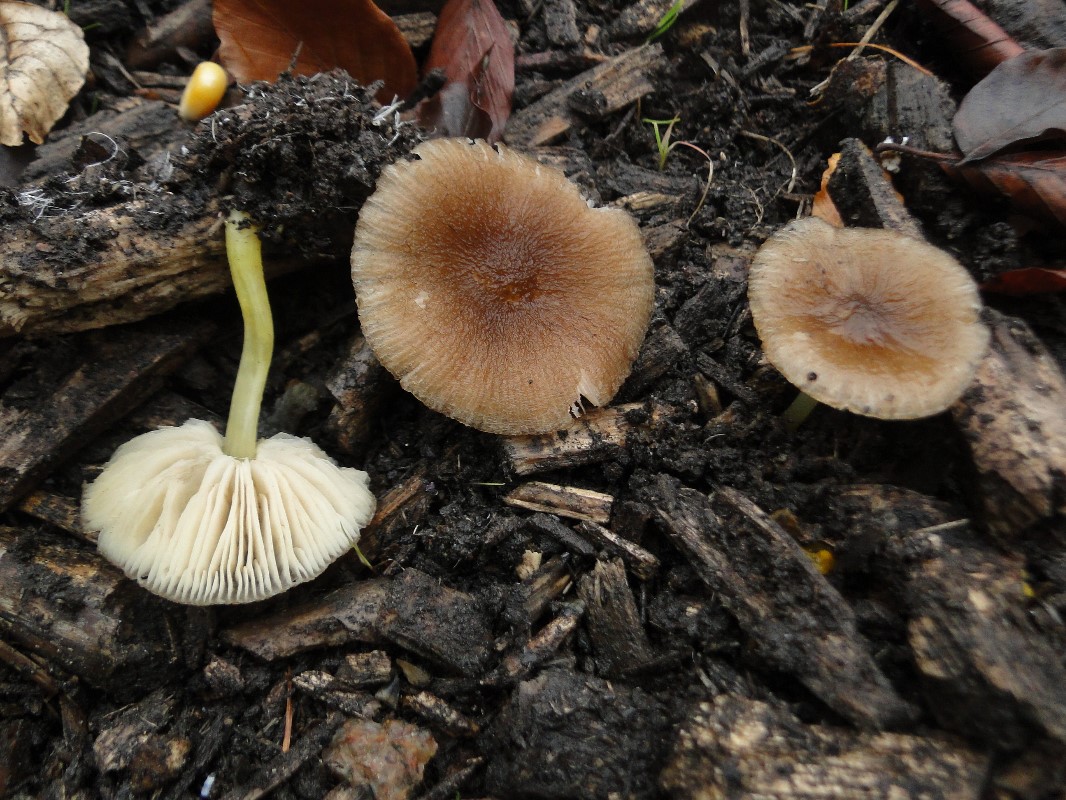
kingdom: Fungi
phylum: Basidiomycota
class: Agaricomycetes
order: Agaricales
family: Pluteaceae
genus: Pluteus
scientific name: Pluteus romellii
